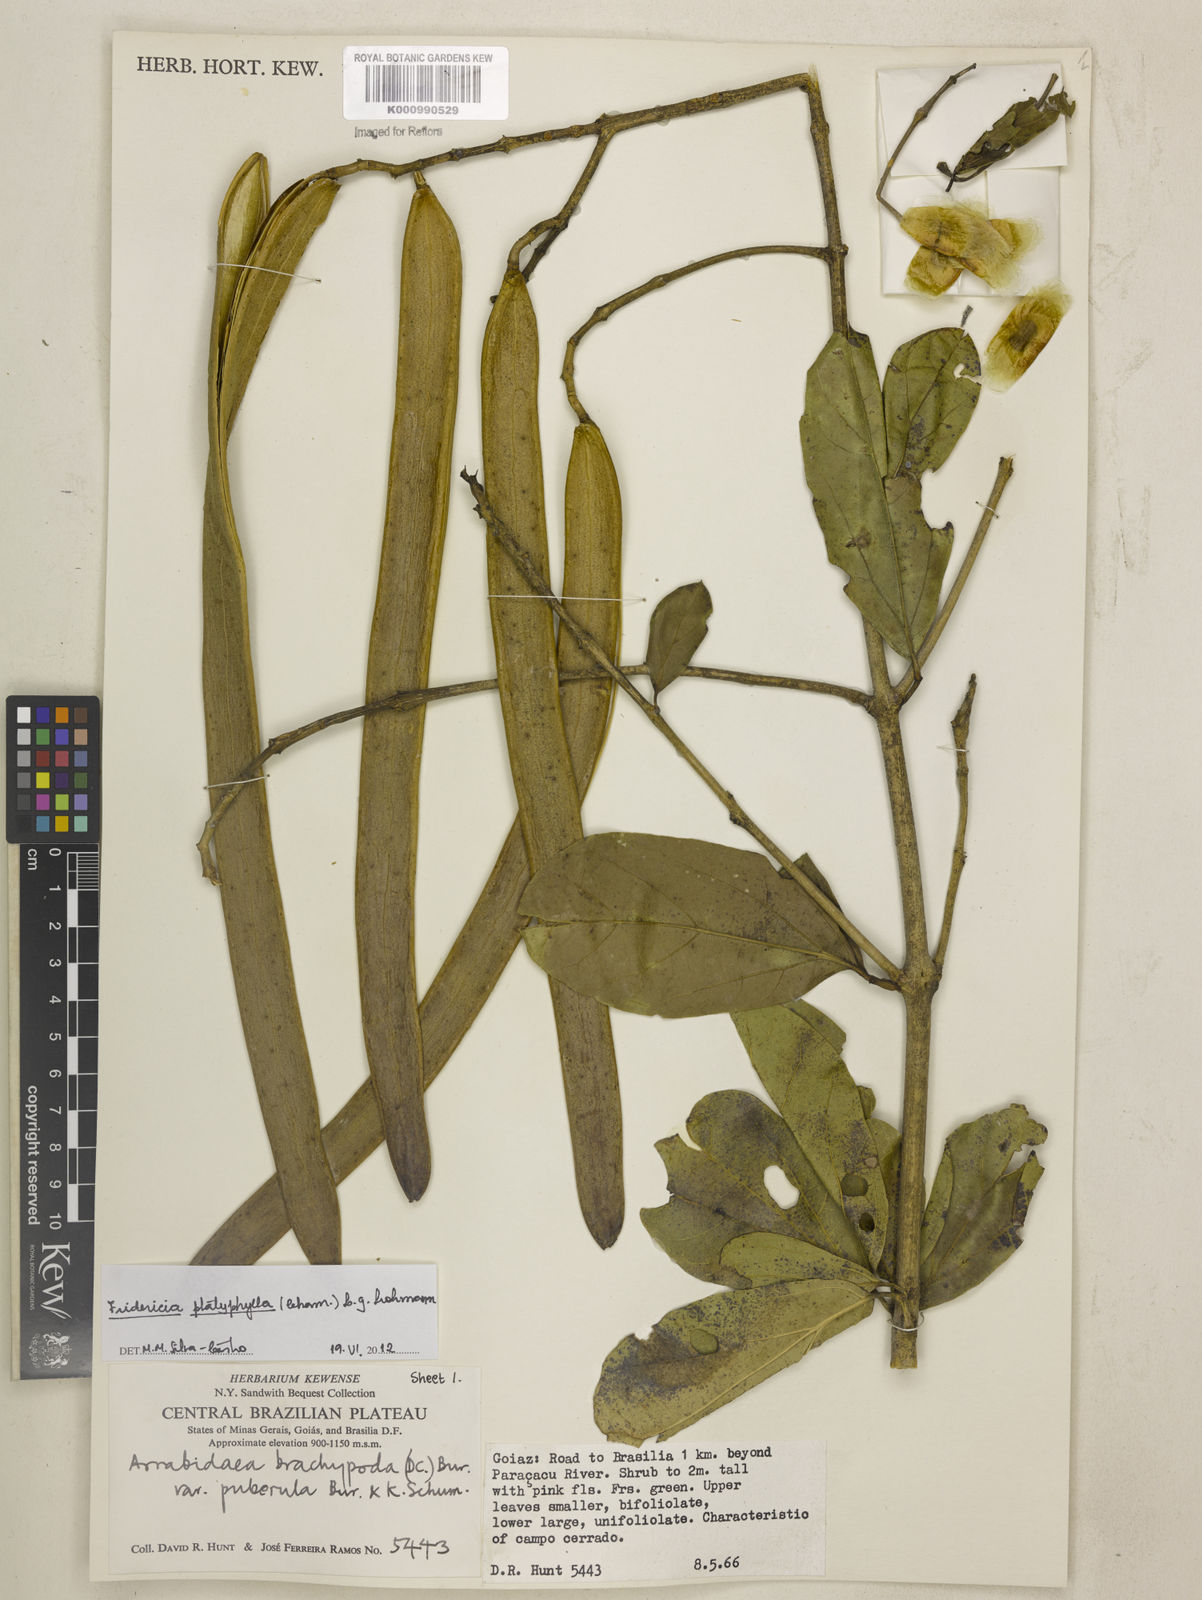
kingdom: Plantae
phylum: Tracheophyta
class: Magnoliopsida
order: Lamiales
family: Bignoniaceae
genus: Fridericia
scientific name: Fridericia platyphylla
